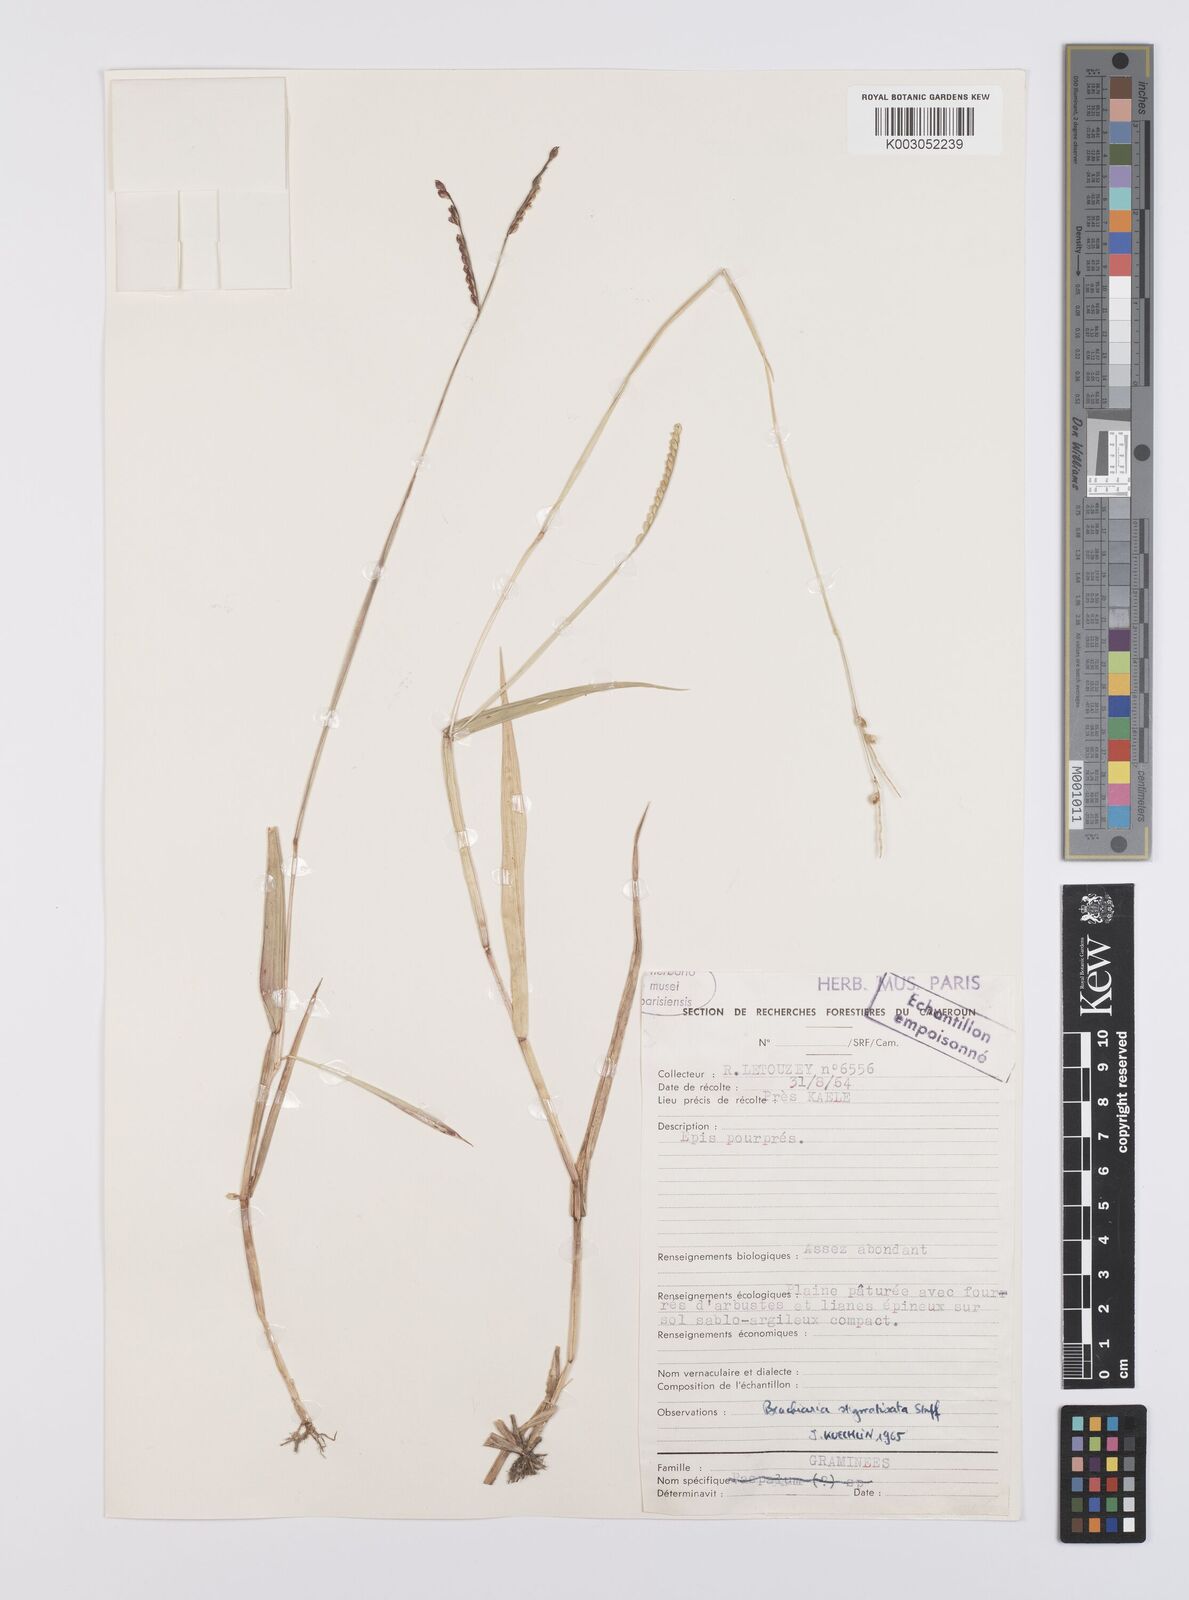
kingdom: Plantae
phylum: Tracheophyta
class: Liliopsida
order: Poales
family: Poaceae
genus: Urochloa
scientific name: Urochloa stigmatisata
